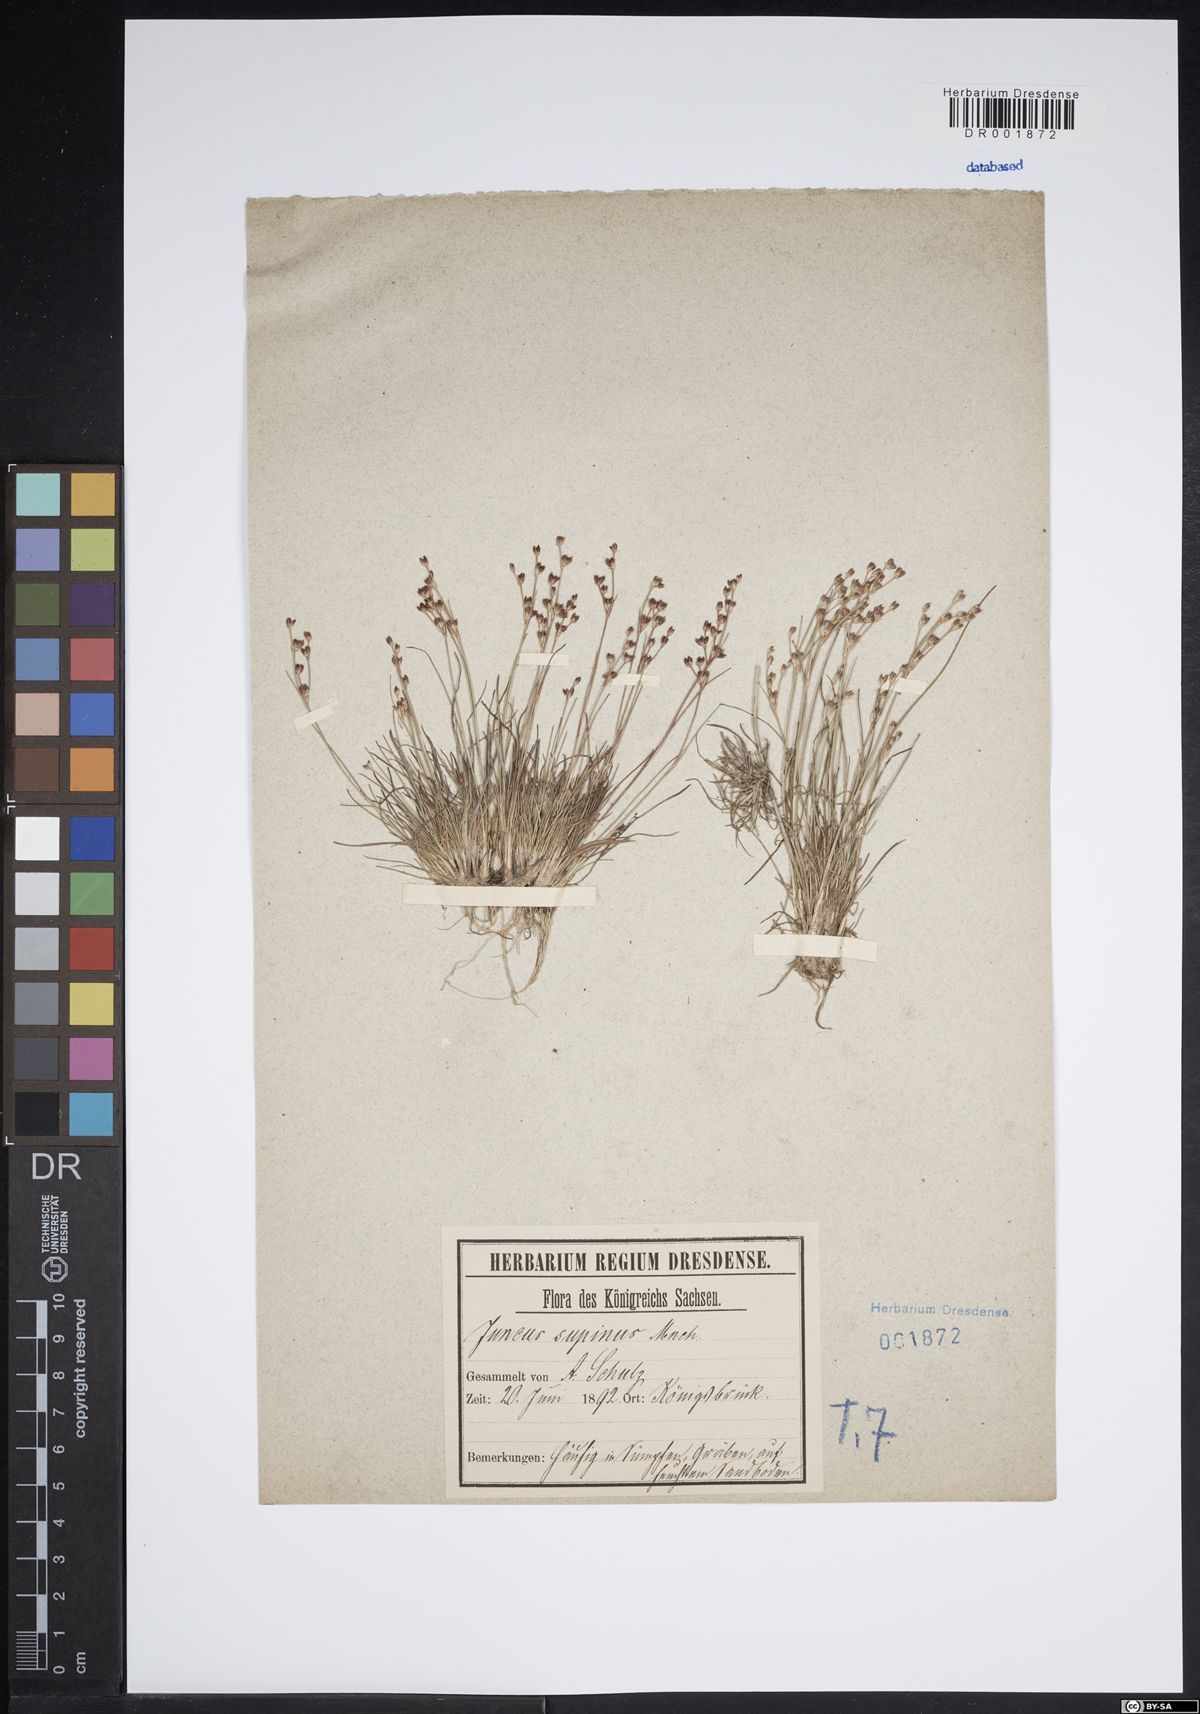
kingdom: Plantae
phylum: Tracheophyta
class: Liliopsida
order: Poales
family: Juncaceae
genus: Juncus
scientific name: Juncus bulbosus
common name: Bulbous rush
